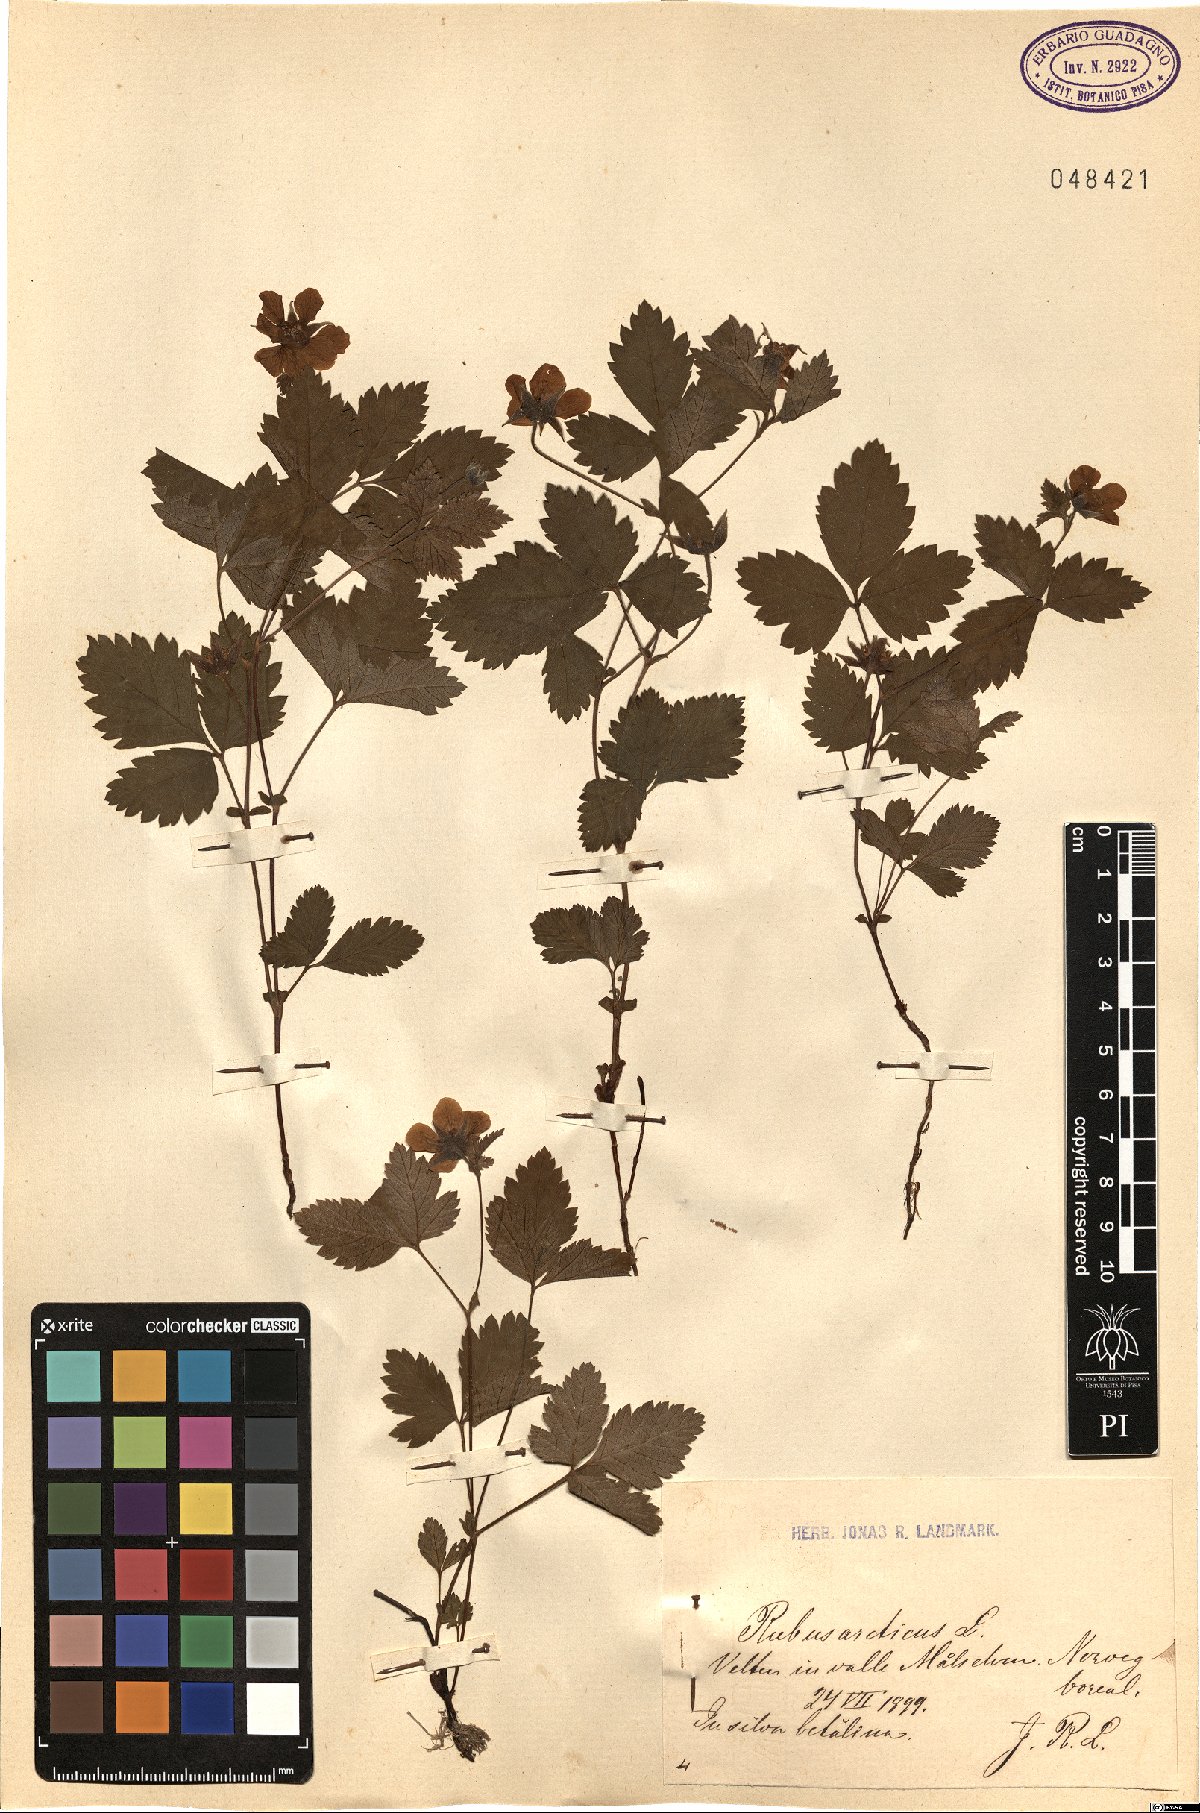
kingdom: Plantae
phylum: Tracheophyta
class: Magnoliopsida
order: Rosales
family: Rosaceae
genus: Rubus
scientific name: Rubus arcticus
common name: Arctic bramble
